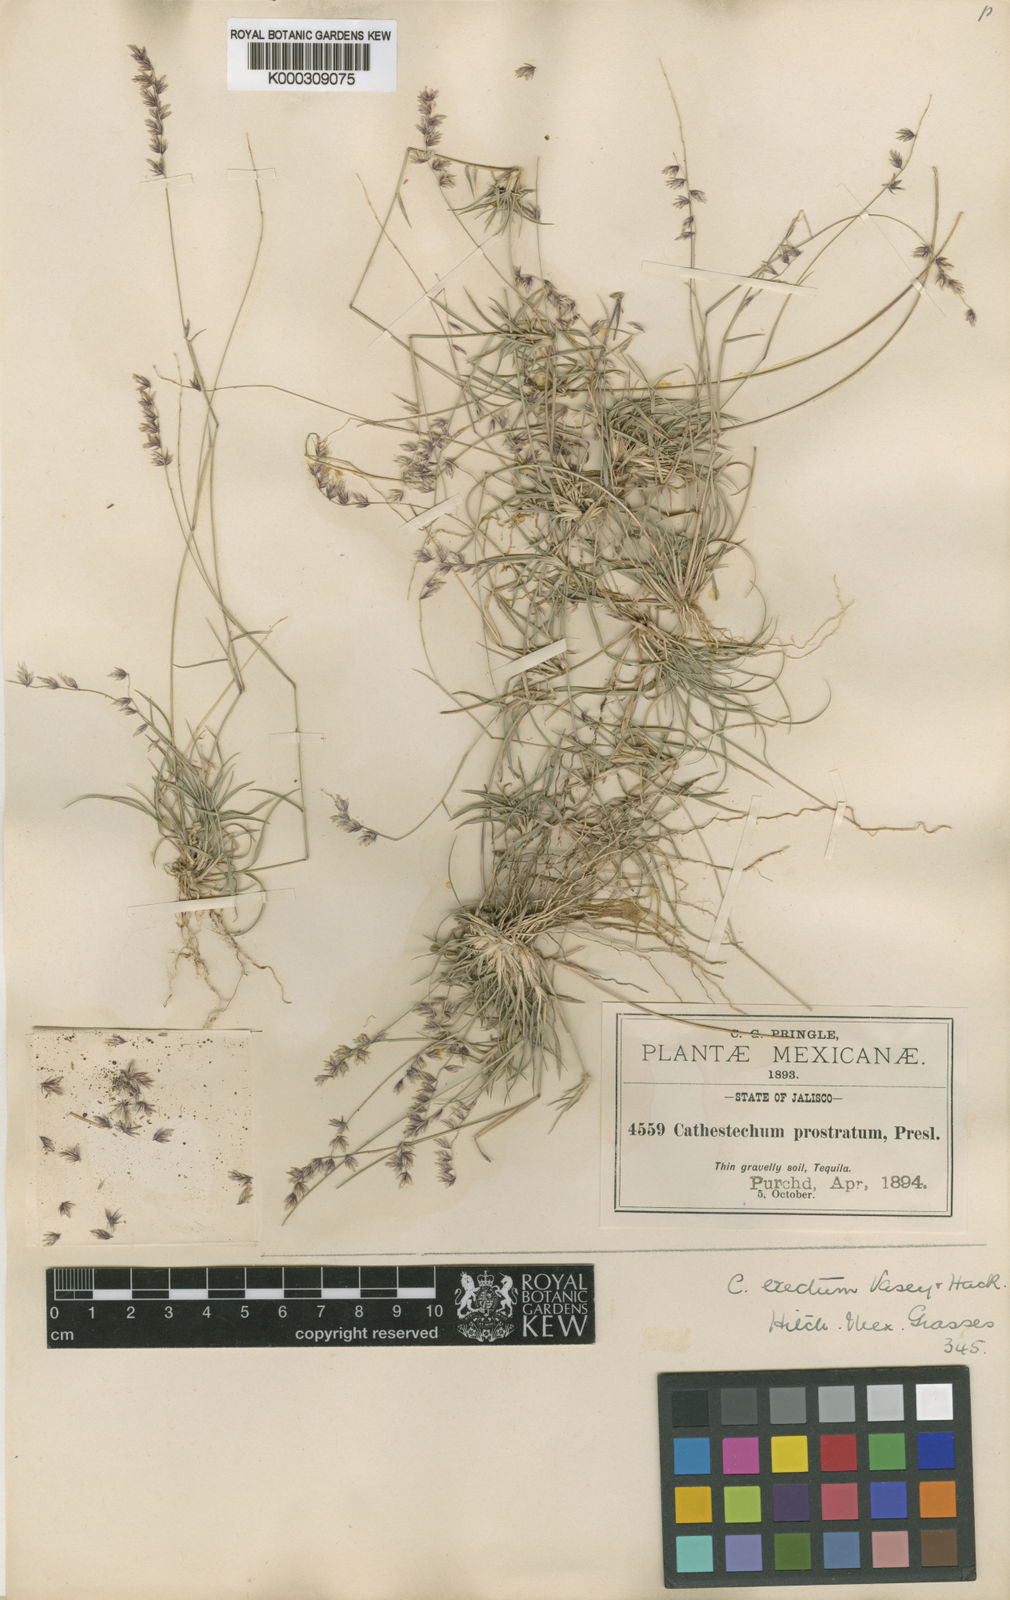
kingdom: Plantae
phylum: Tracheophyta
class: Liliopsida
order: Poales
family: Poaceae
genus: Bouteloua
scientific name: Bouteloua diversispicula
